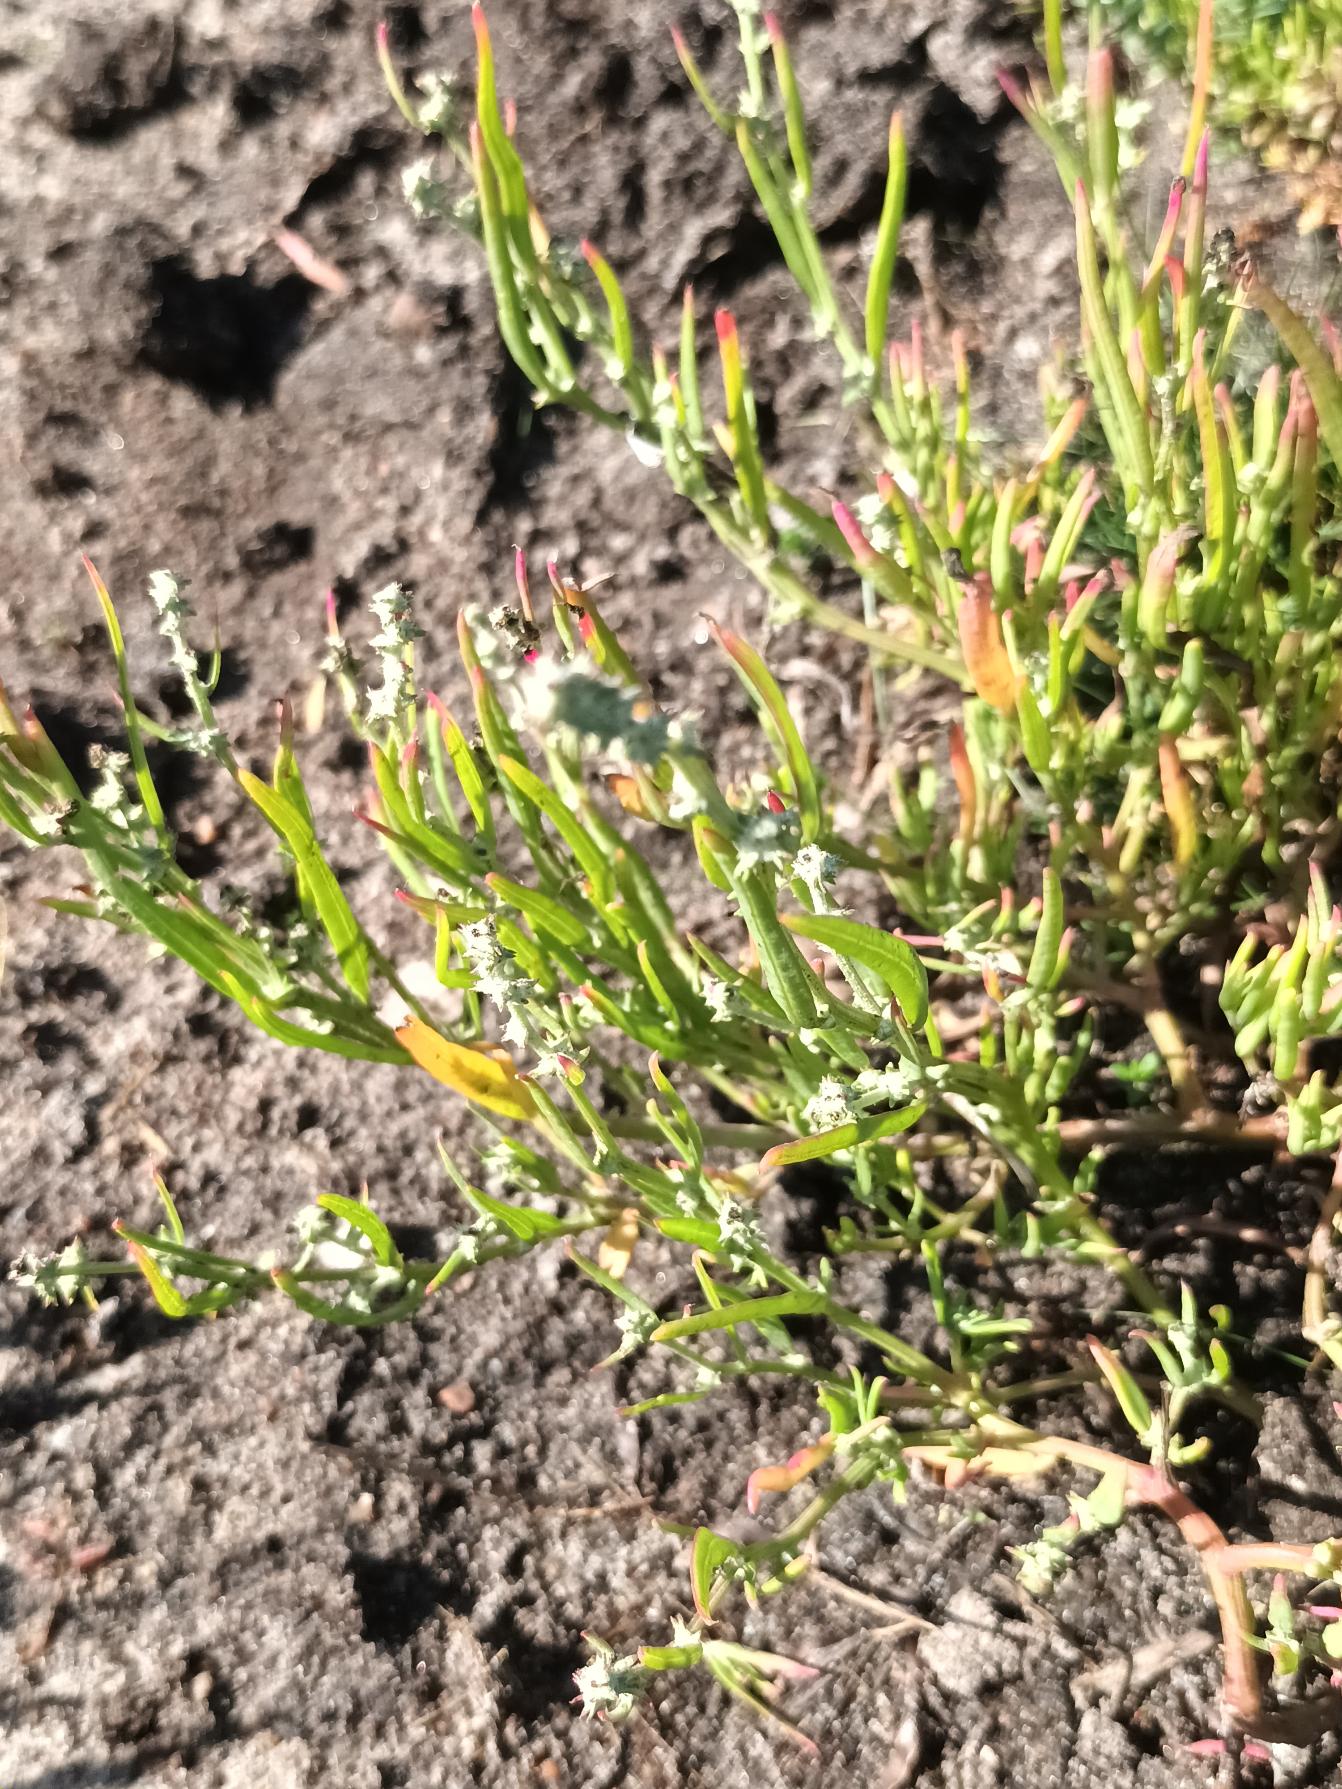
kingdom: Plantae
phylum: Tracheophyta
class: Magnoliopsida
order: Caryophyllales
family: Amaranthaceae
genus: Atriplex
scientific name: Atriplex littoralis
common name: Strand-mælde
